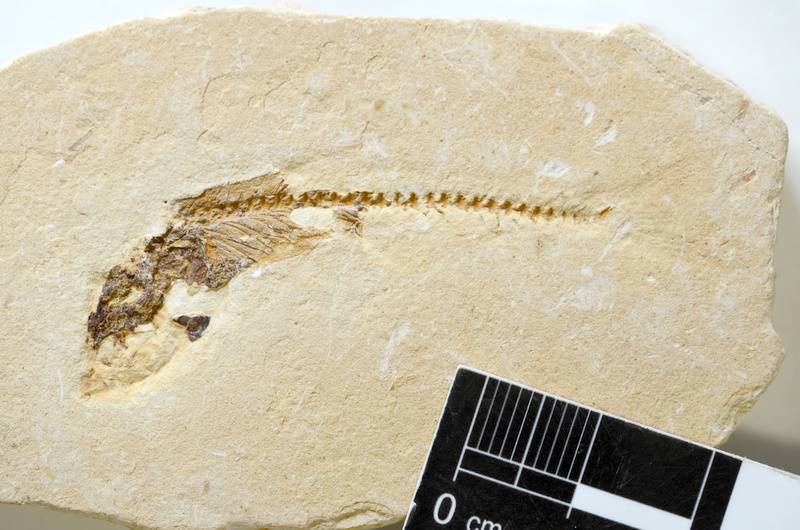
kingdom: Animalia
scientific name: Animalia
